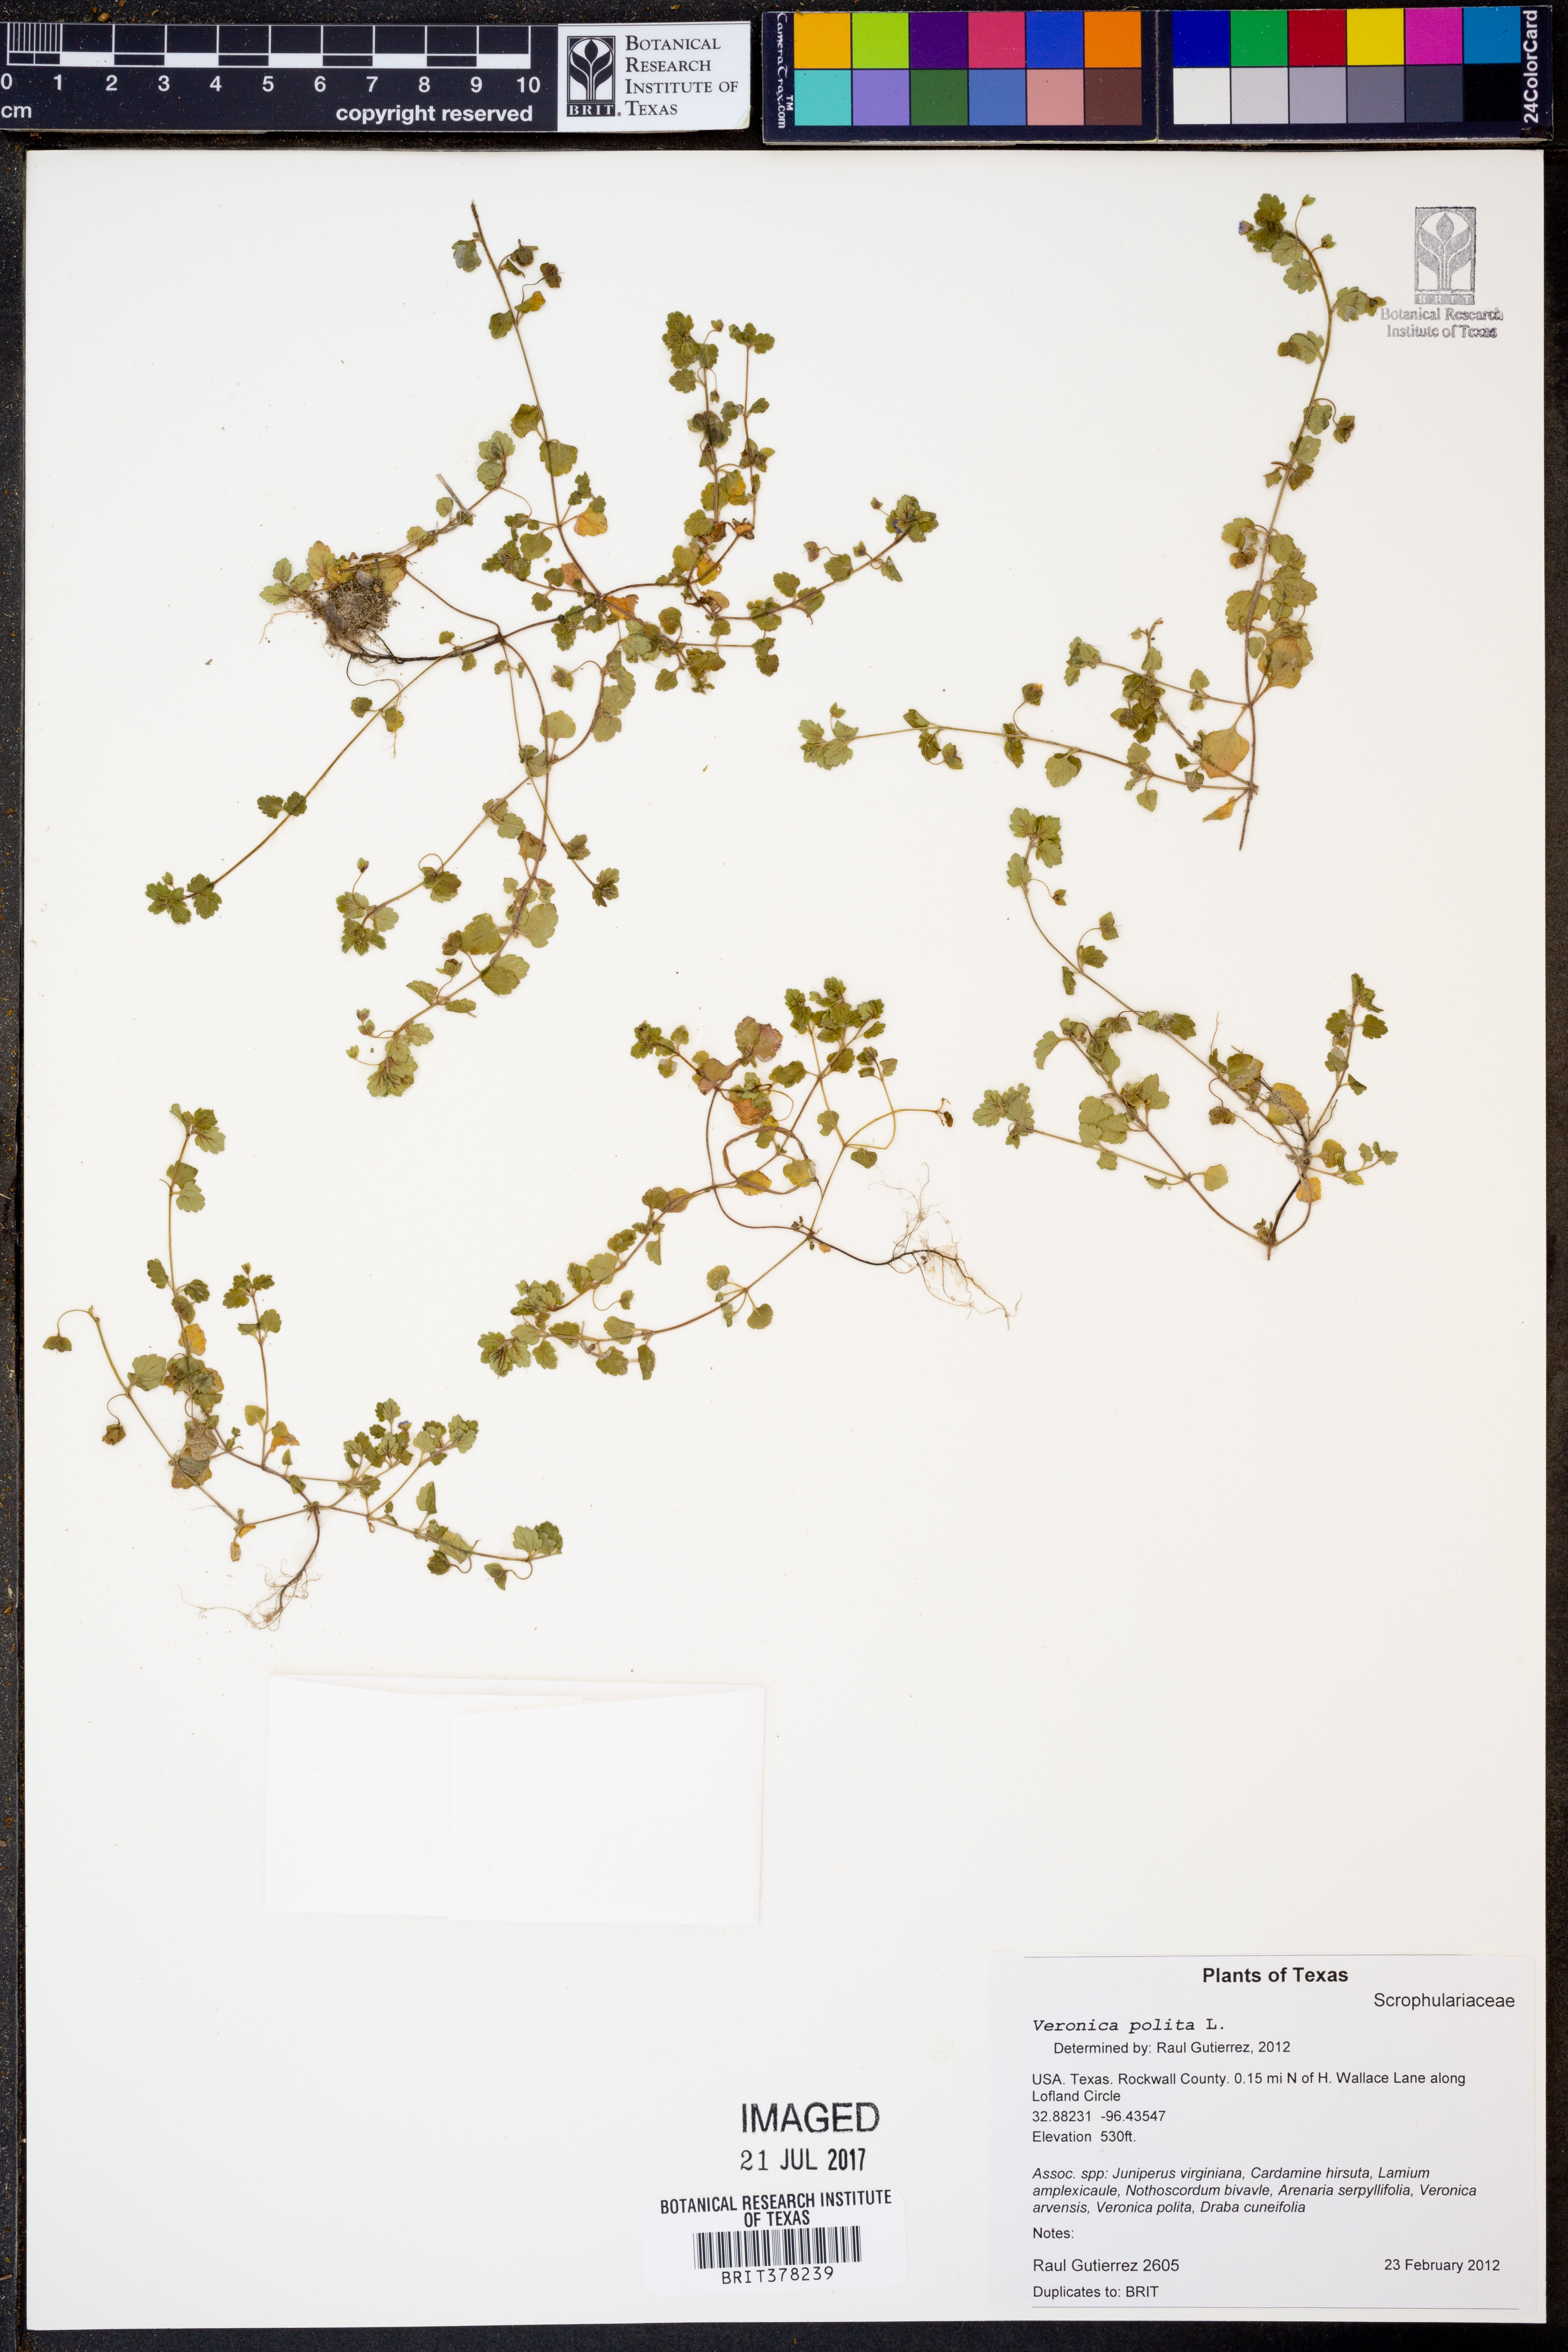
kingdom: Plantae
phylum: Tracheophyta
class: Magnoliopsida
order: Lamiales
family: Plantaginaceae
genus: Veronica
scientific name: Veronica polita
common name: Grey field-speedwell
